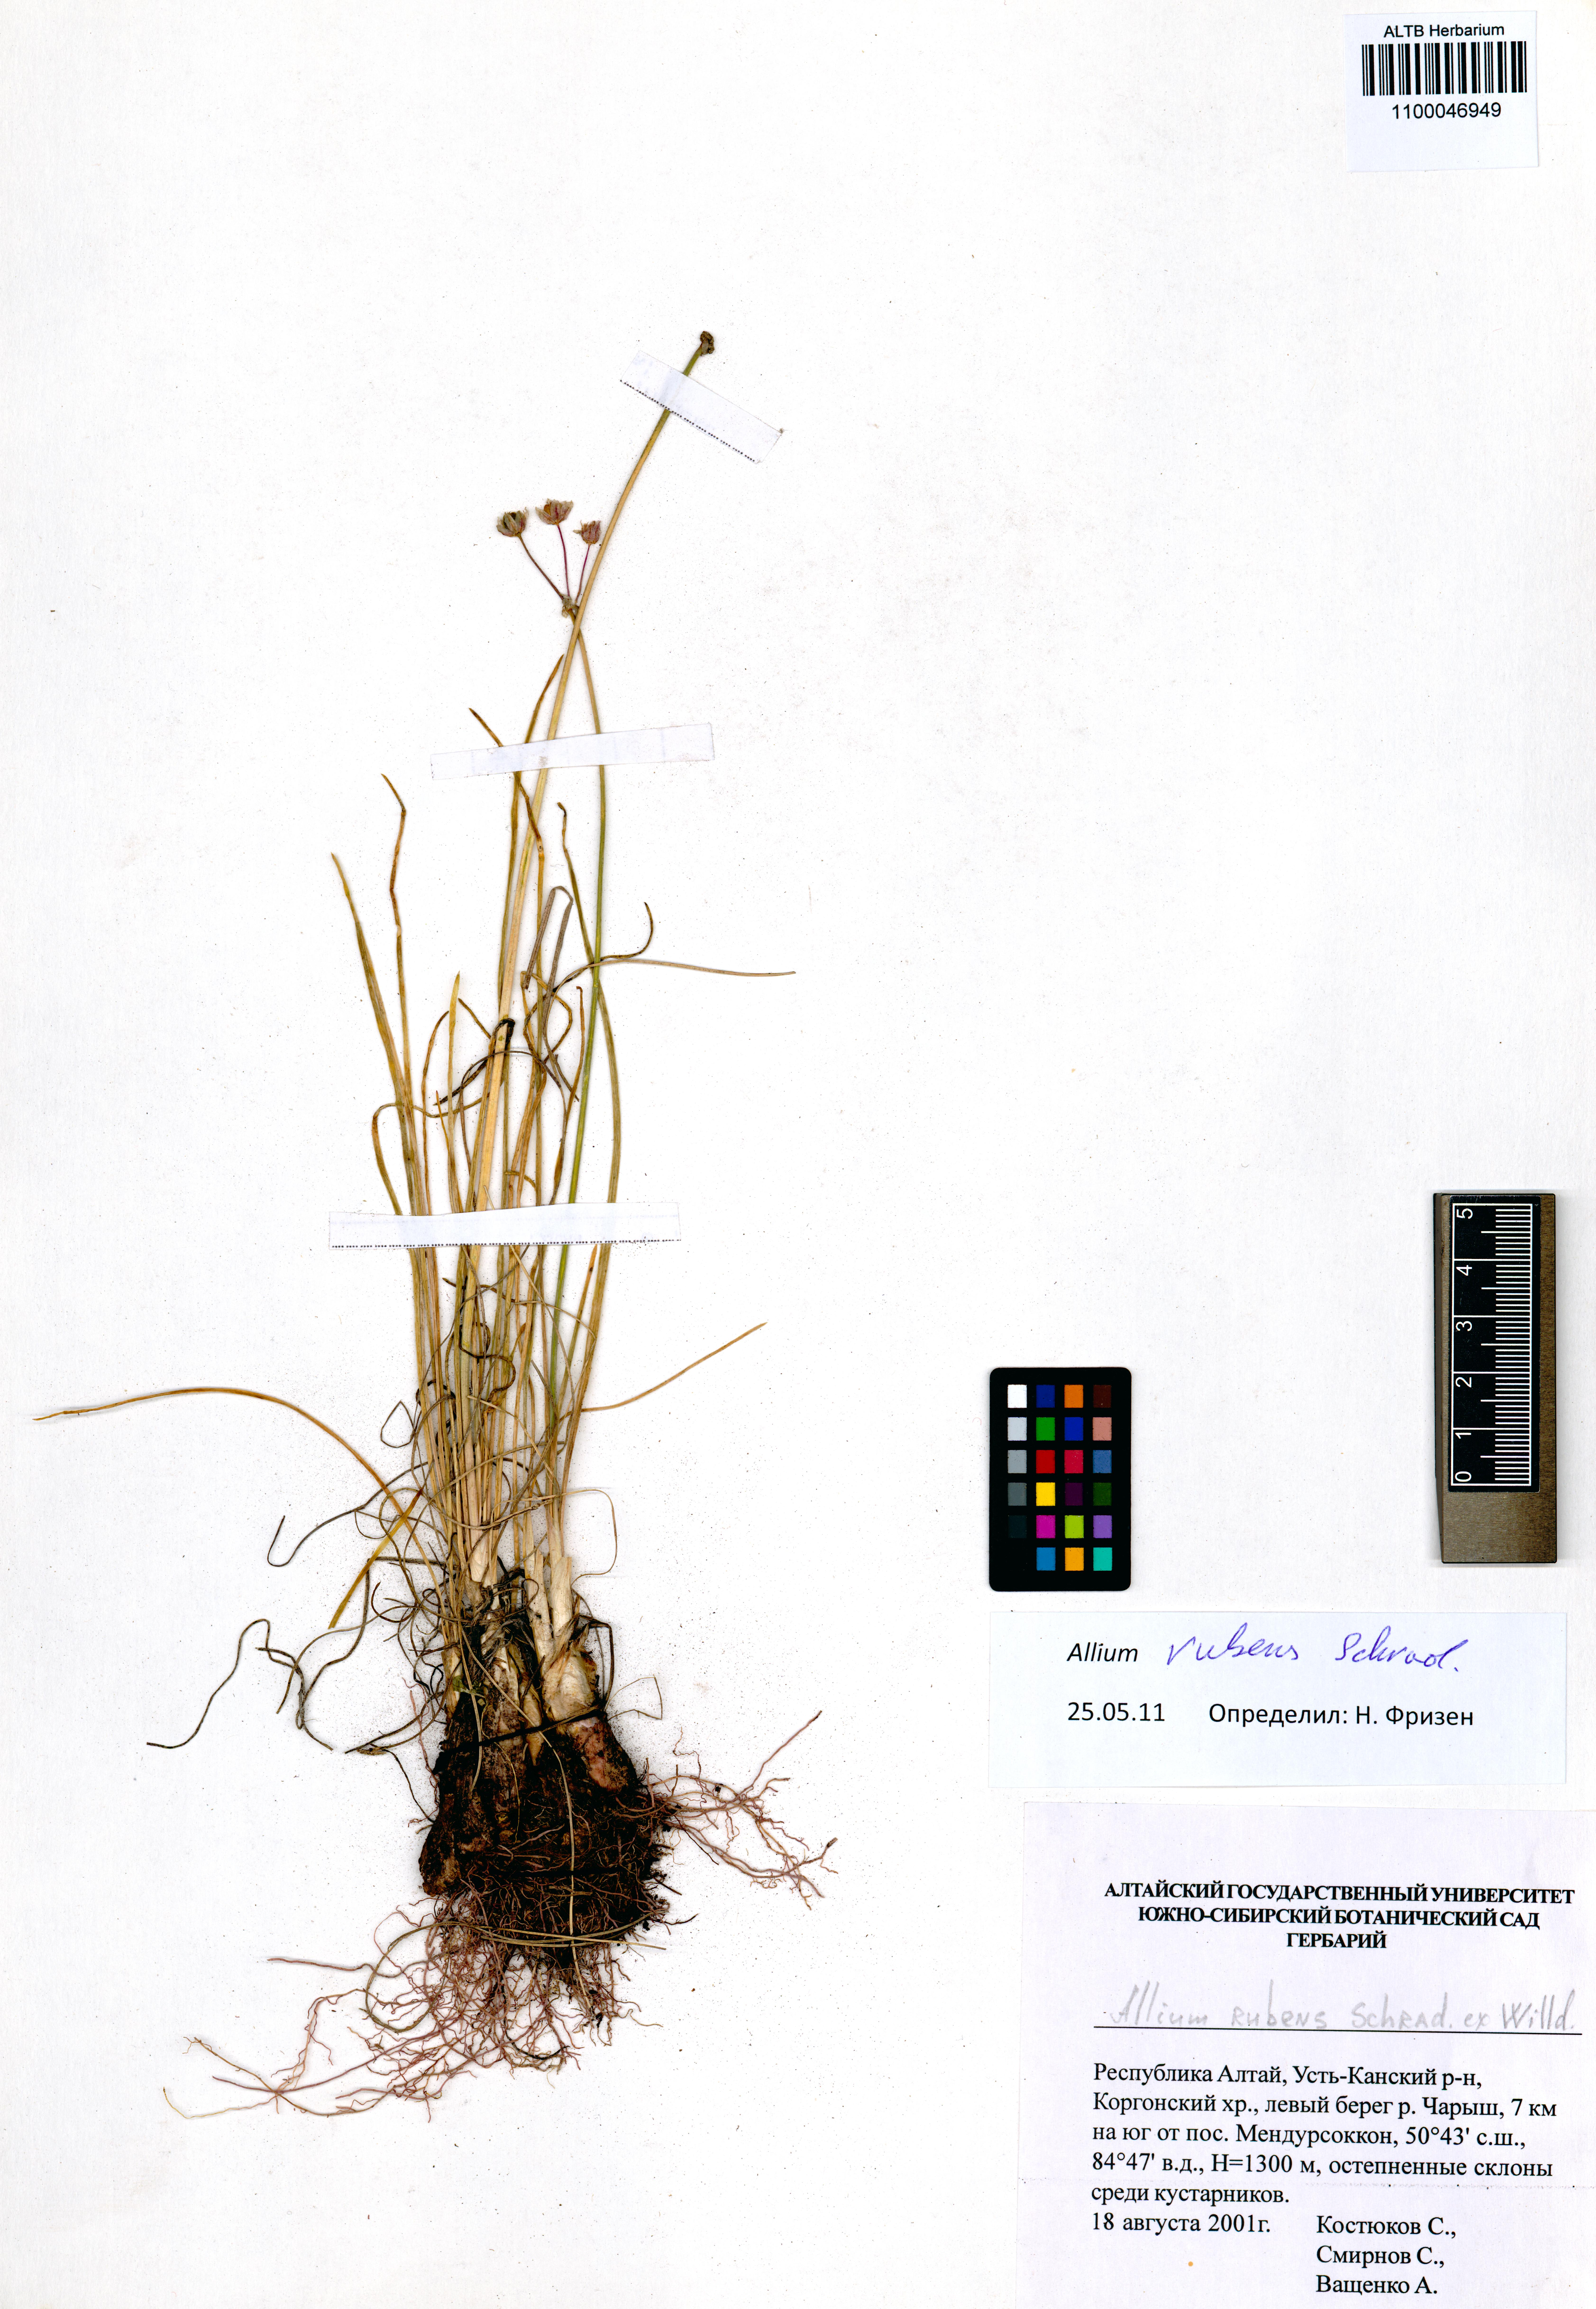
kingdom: Plantae
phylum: Tracheophyta
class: Liliopsida
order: Asparagales
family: Amaryllidaceae
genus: Allium
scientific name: Allium rubens
